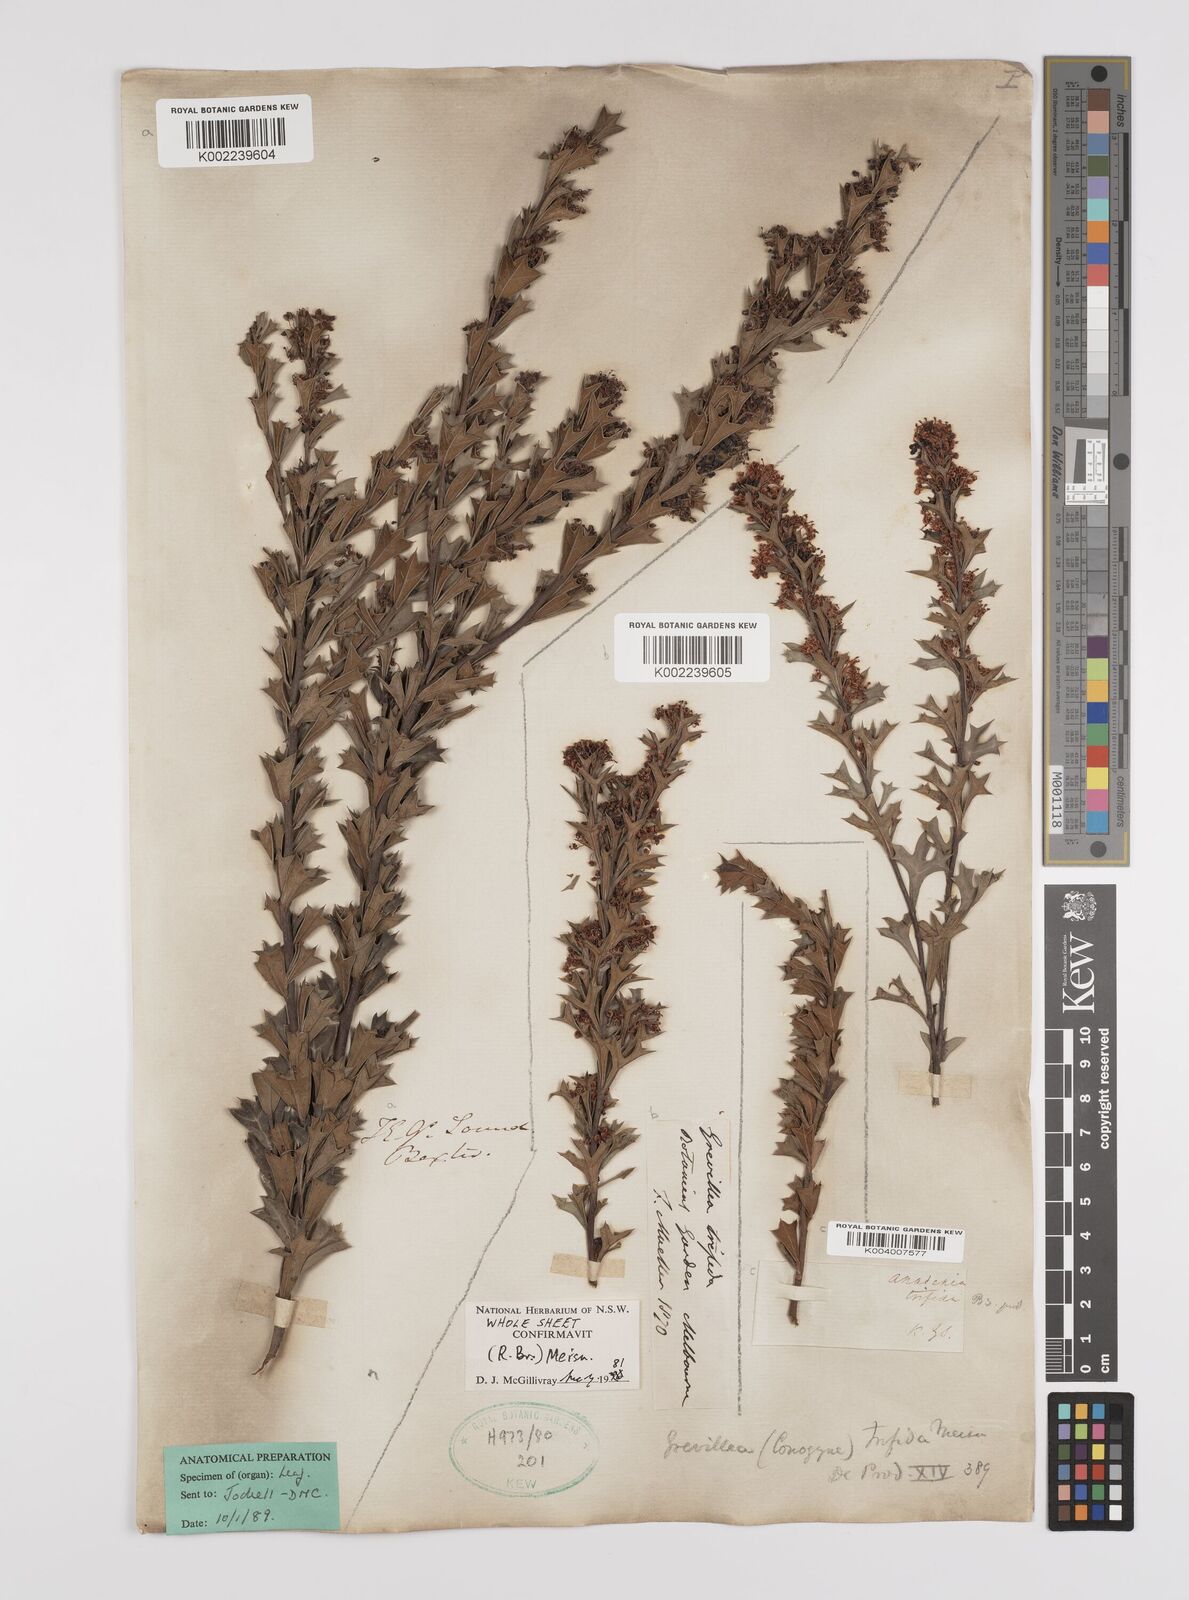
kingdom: Plantae
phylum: Tracheophyta
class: Magnoliopsida
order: Proteales
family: Proteaceae
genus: Grevillea
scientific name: Grevillea trifida
